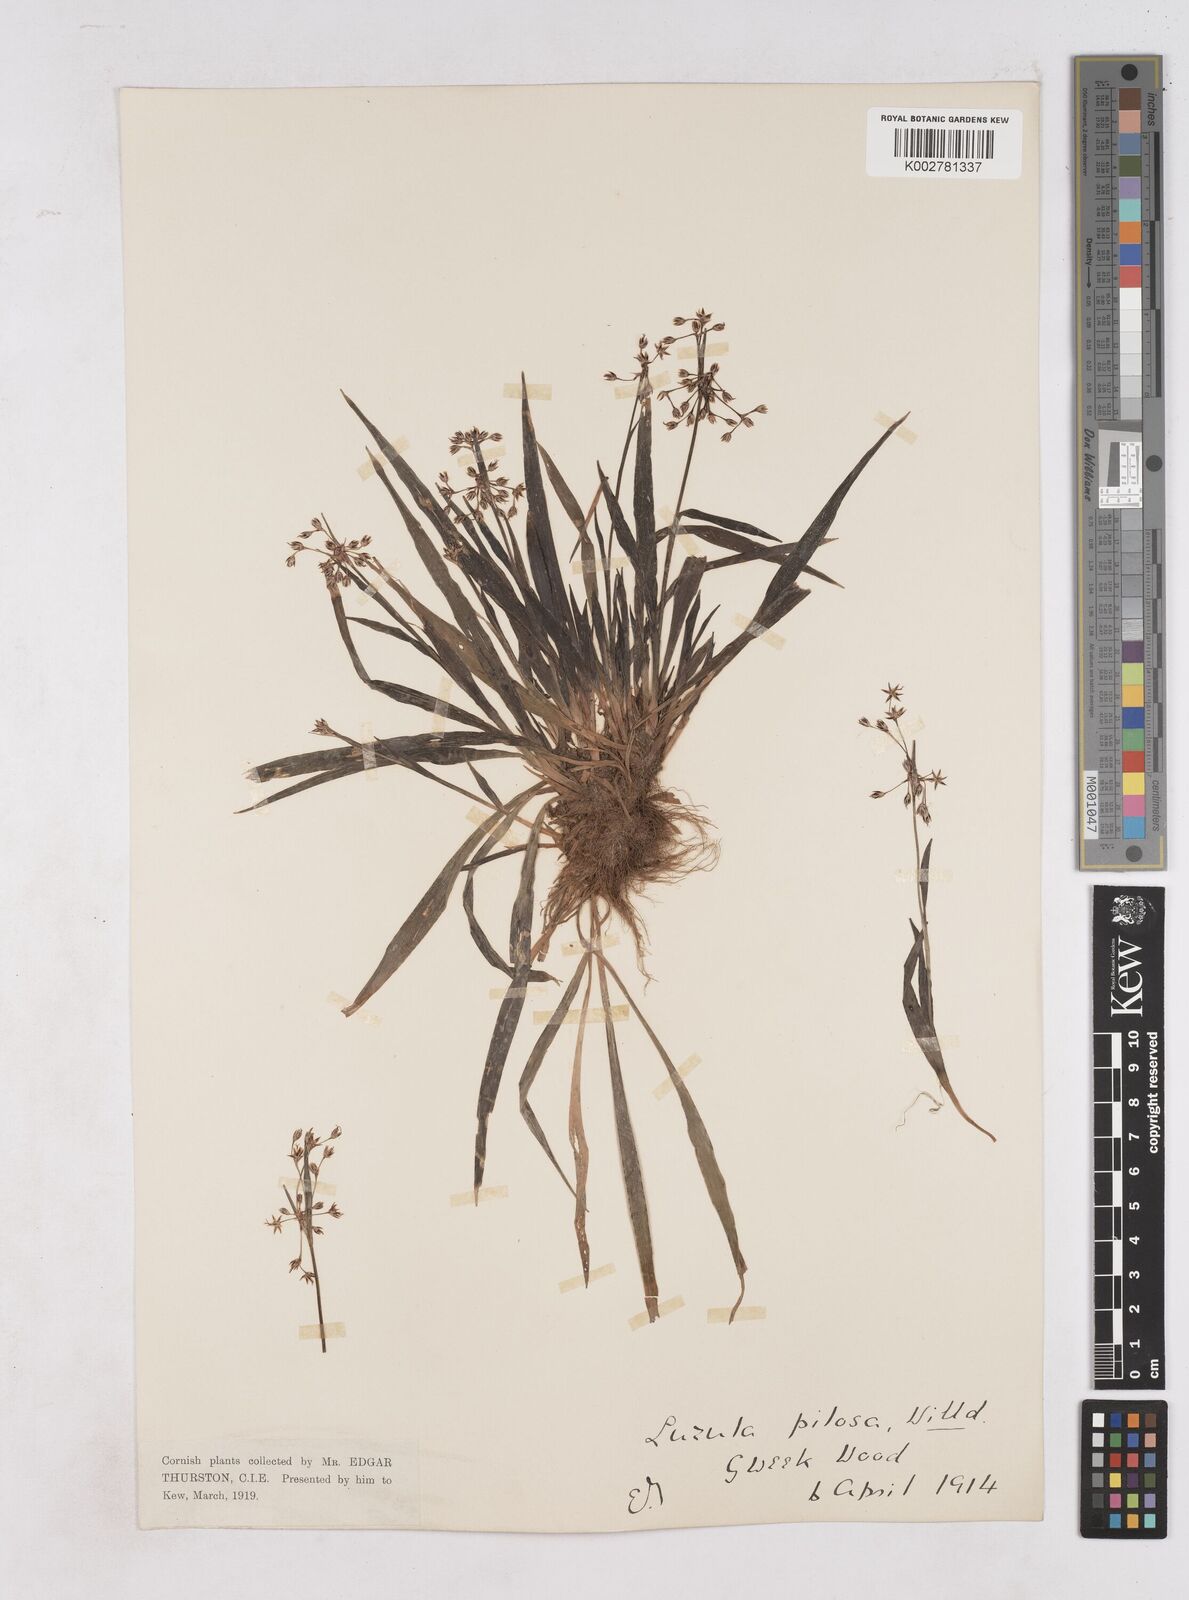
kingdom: Plantae
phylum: Tracheophyta
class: Liliopsida
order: Poales
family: Juncaceae
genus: Luzula
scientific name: Luzula pilosa
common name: Hairy wood-rush
